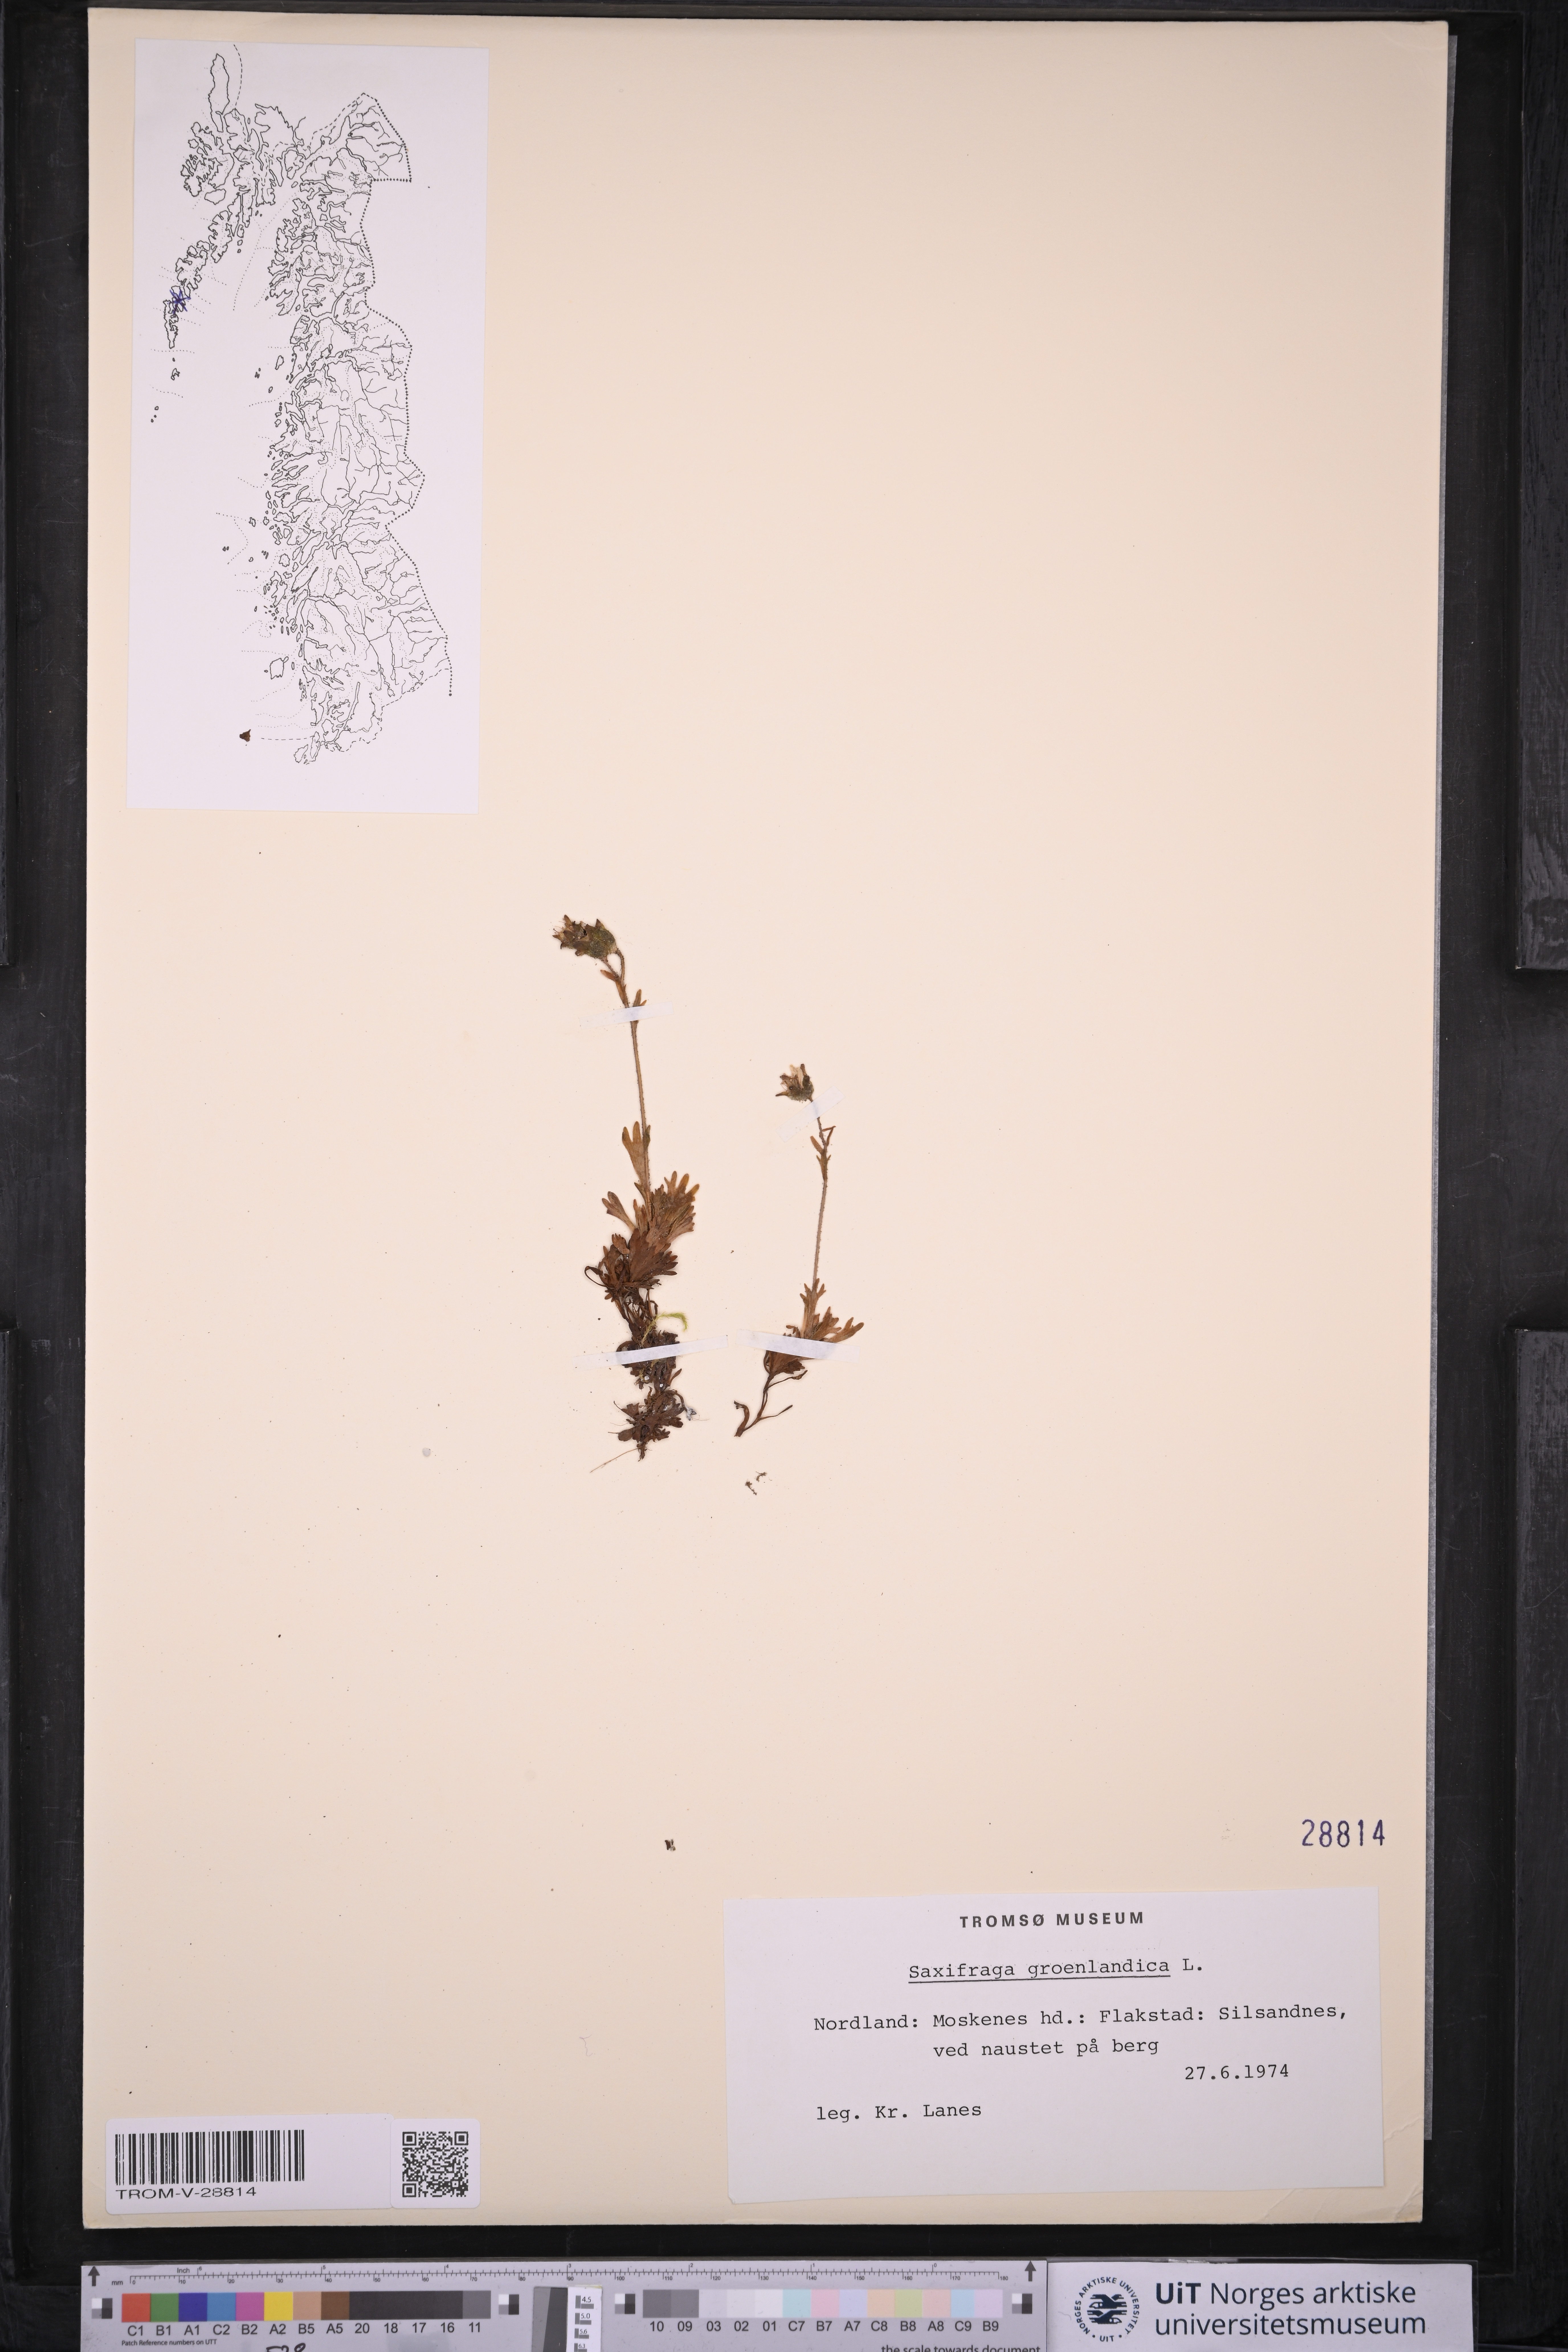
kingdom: Plantae
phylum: Tracheophyta
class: Magnoliopsida
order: Saxifragales
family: Saxifragaceae
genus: Saxifraga
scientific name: Saxifraga cespitosa
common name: Tufted saxifrage
